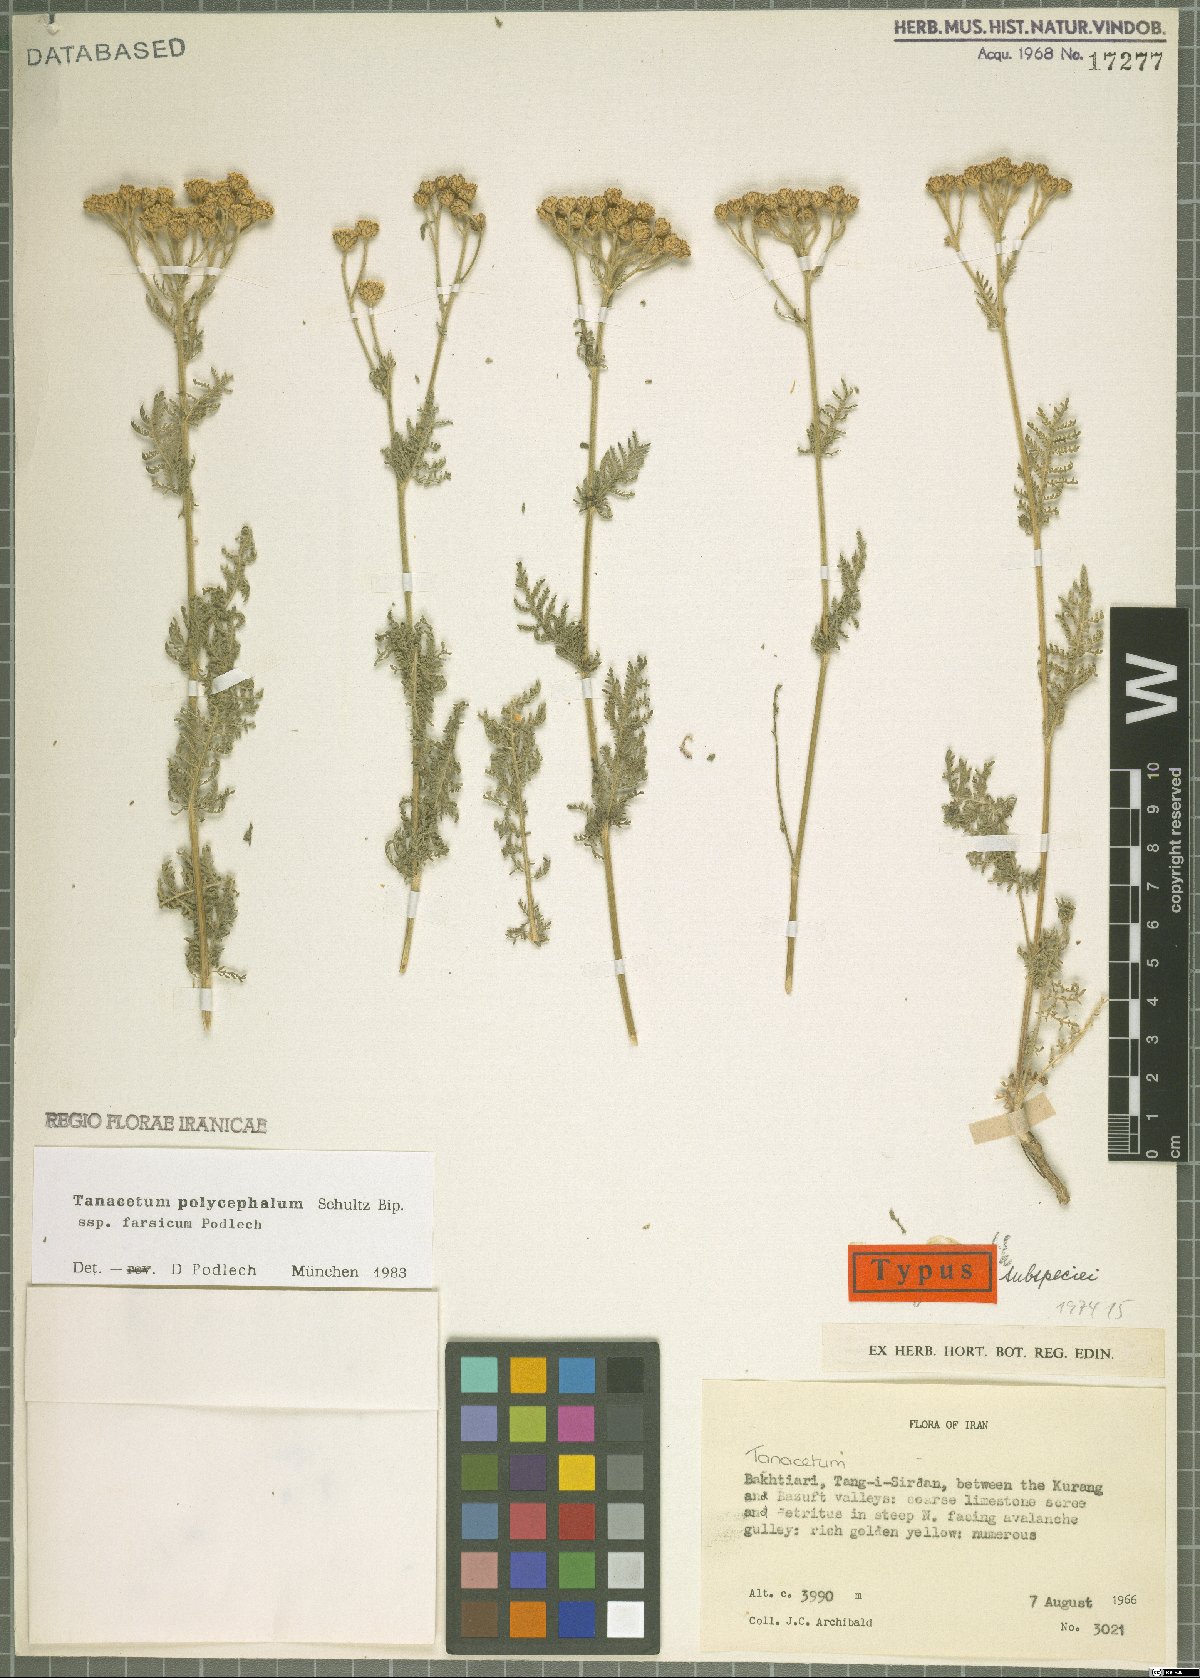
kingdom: Plantae
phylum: Tracheophyta
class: Magnoliopsida
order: Asterales
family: Asteraceae
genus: Tanacetum
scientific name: Tanacetum polycephalum
